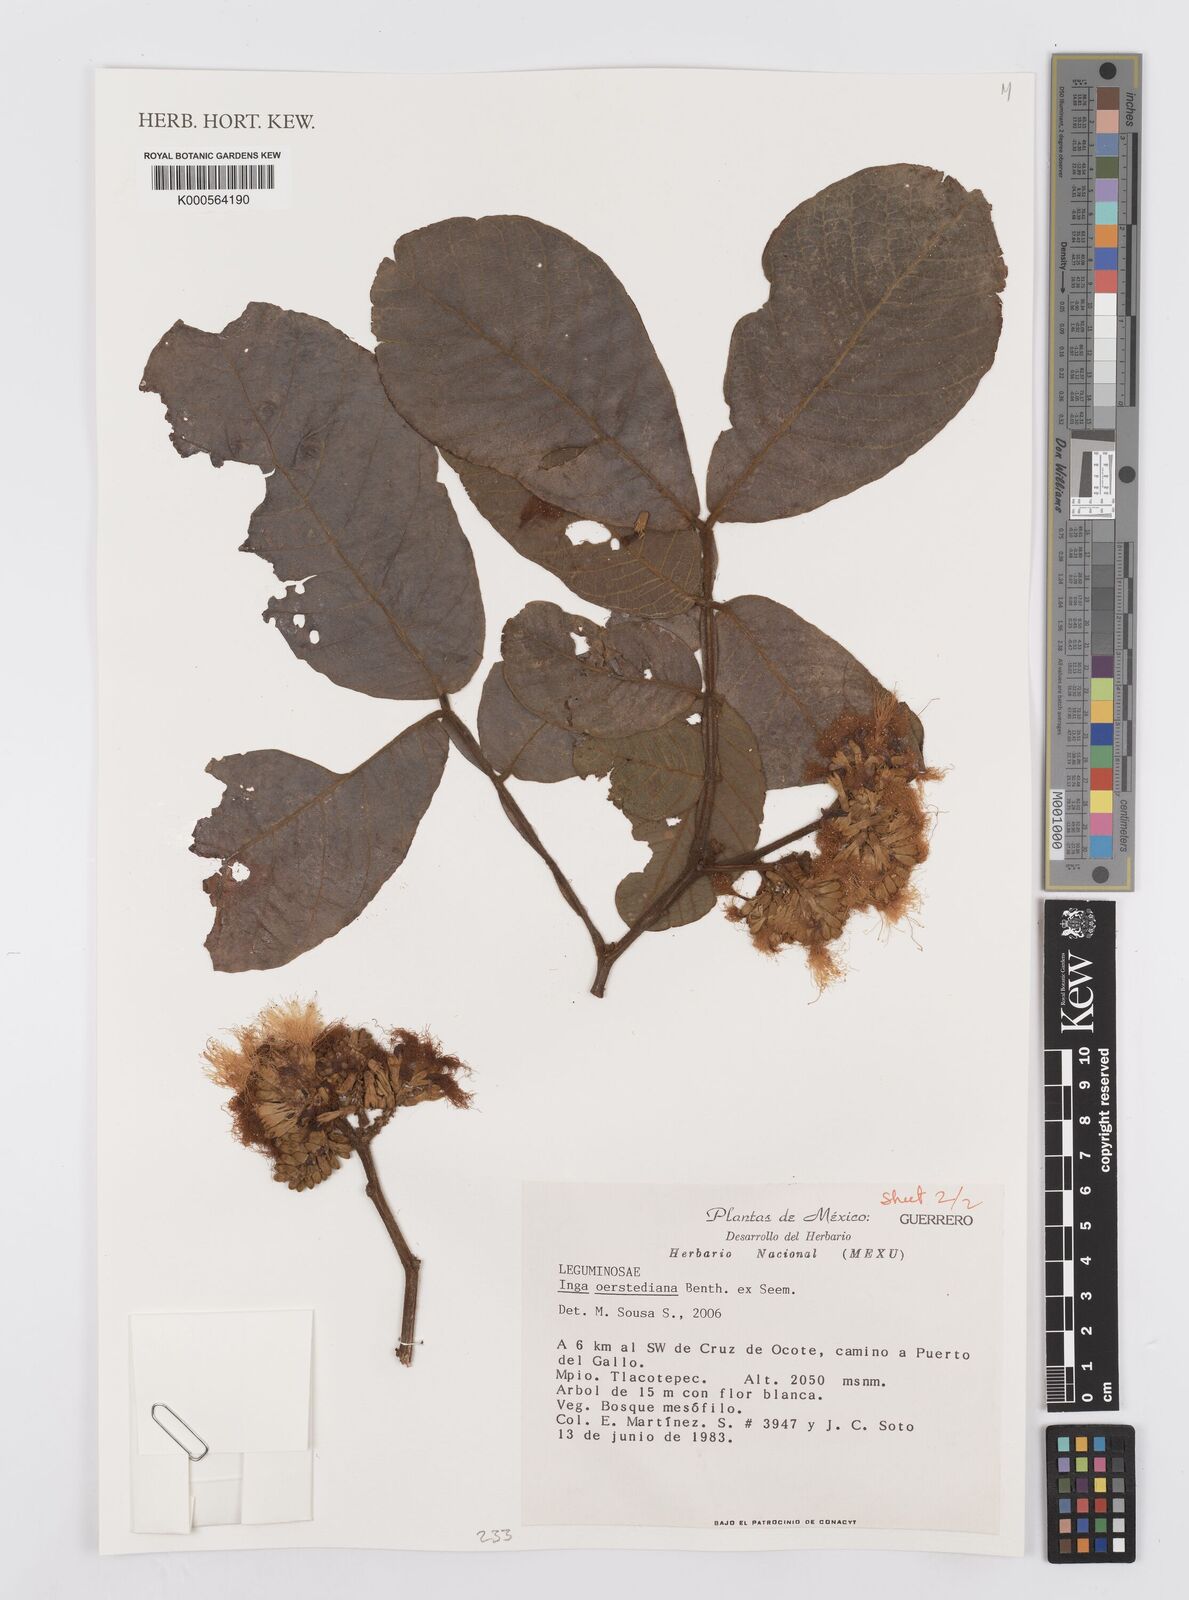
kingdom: Plantae
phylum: Tracheophyta
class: Magnoliopsida
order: Fabales
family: Fabaceae
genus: Inga
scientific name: Inga oerstediana
